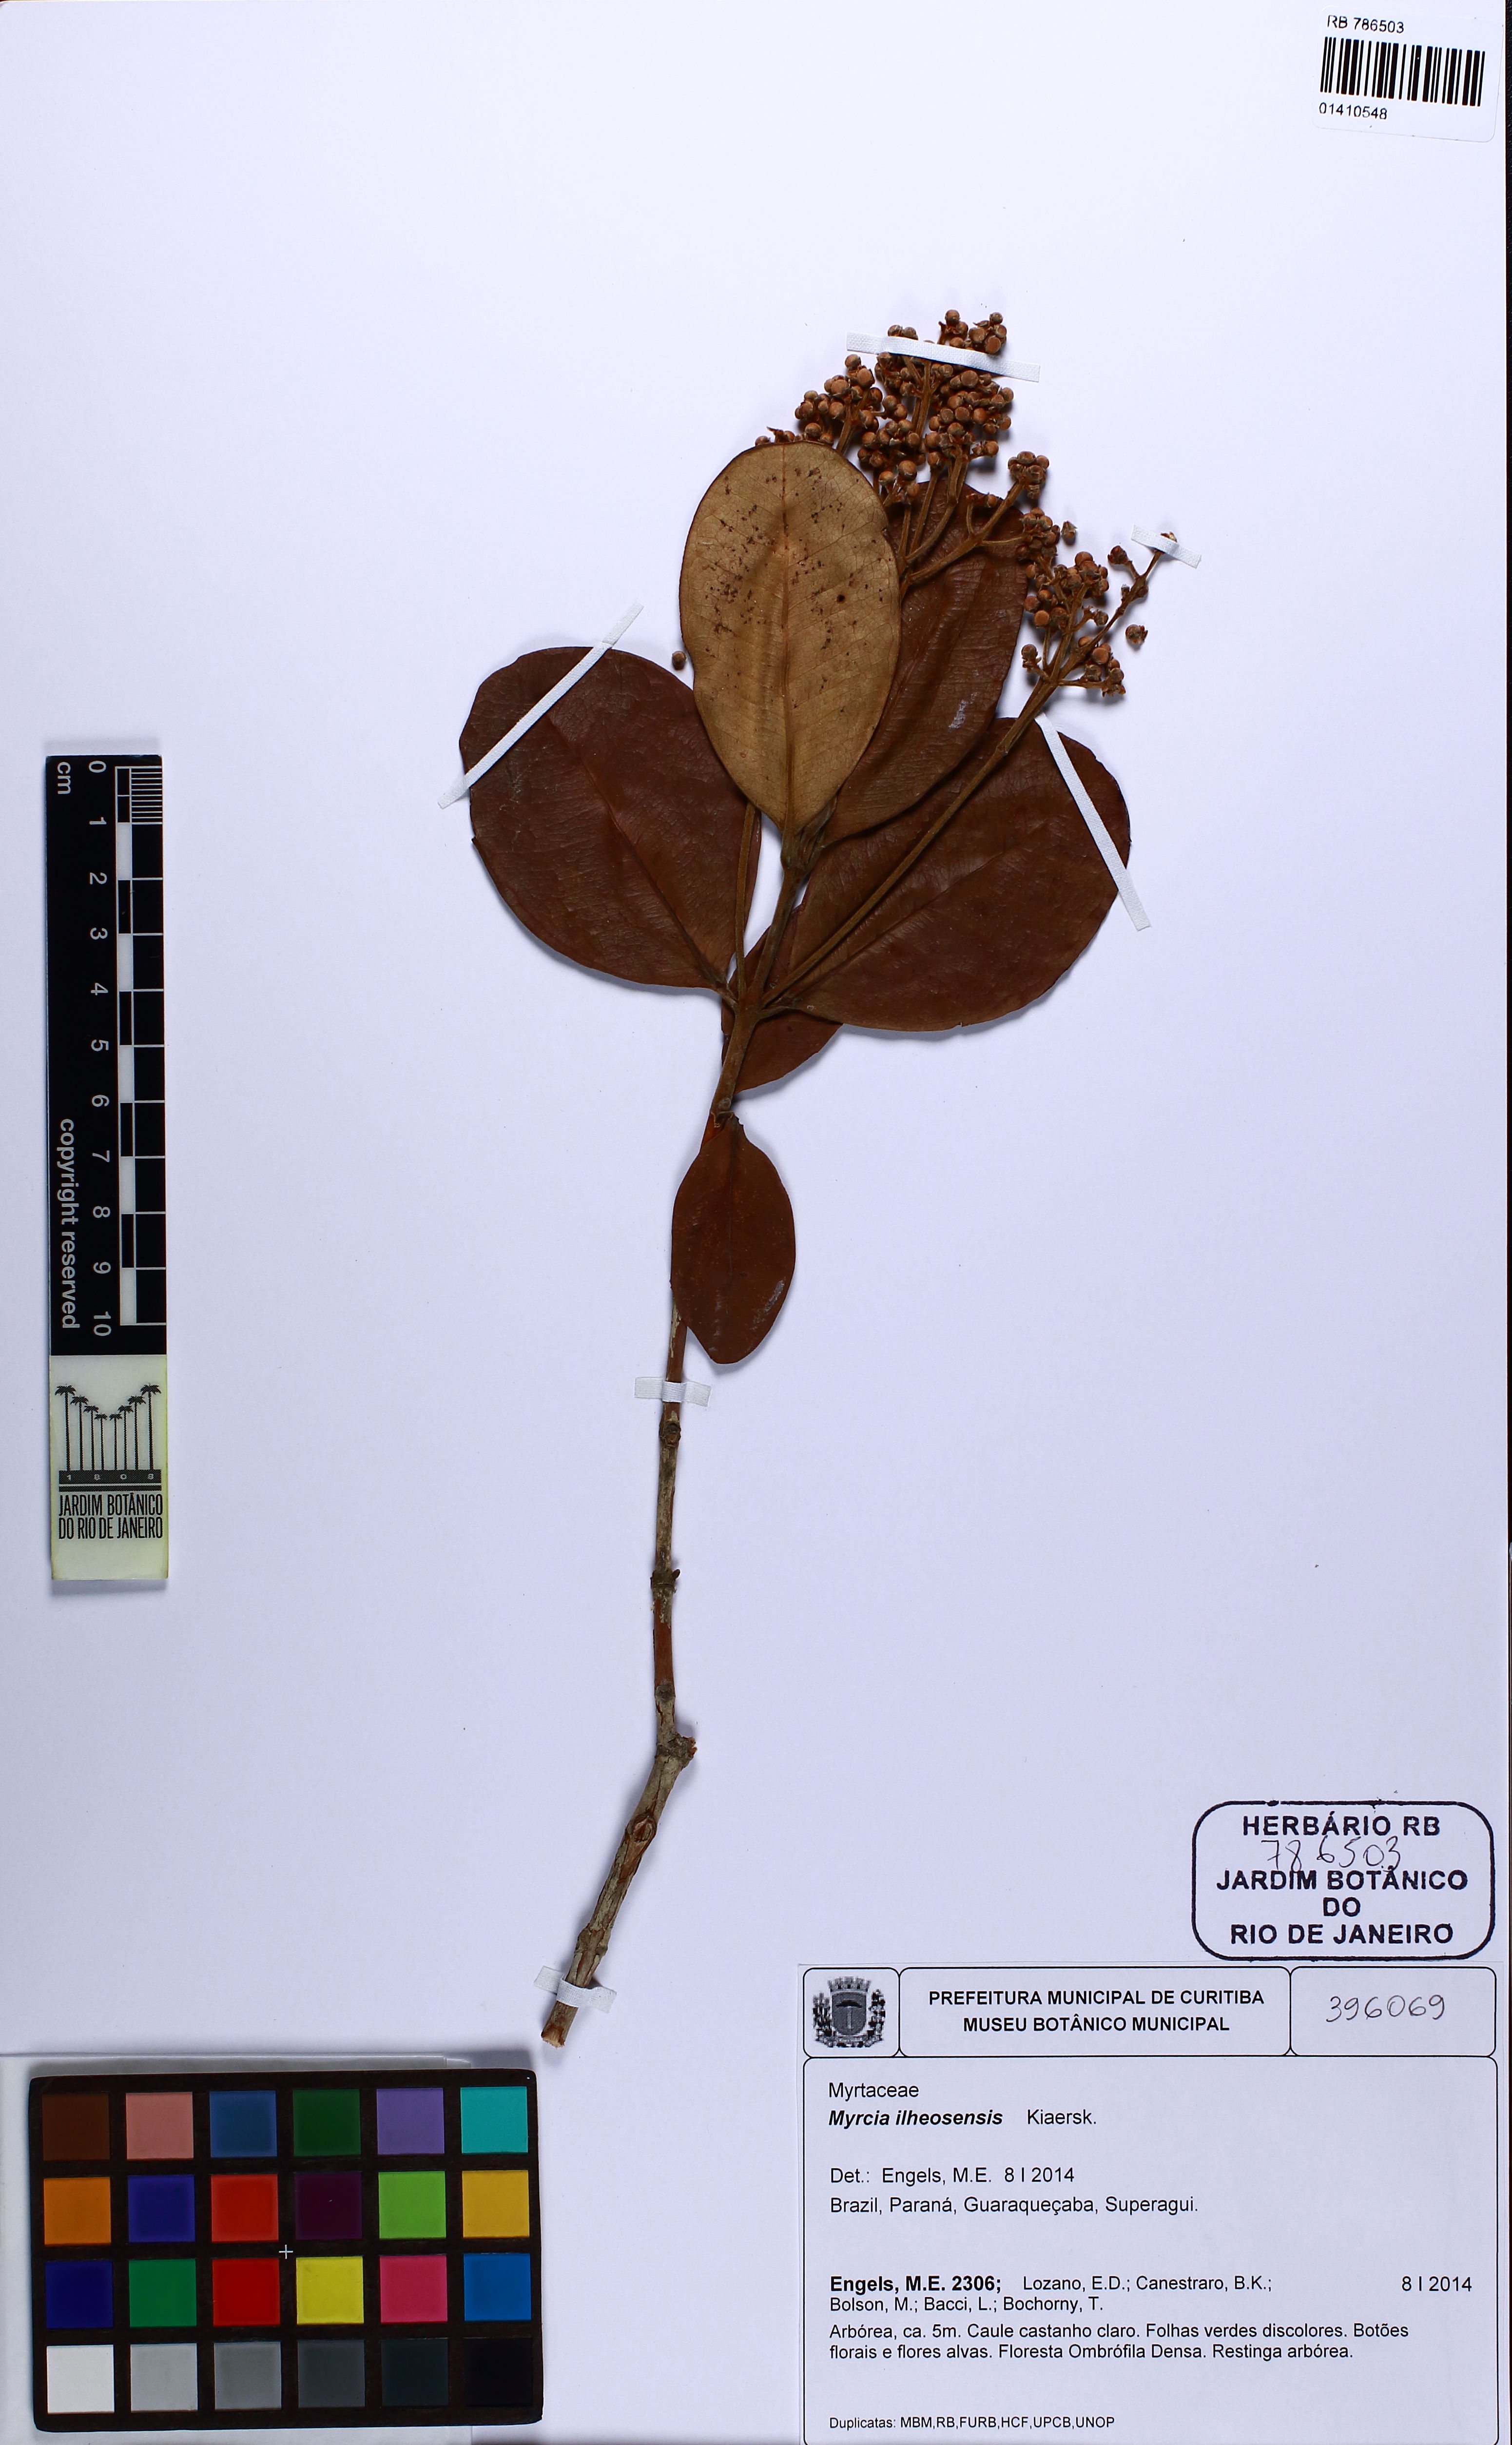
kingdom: Plantae
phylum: Tracheophyta
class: Magnoliopsida
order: Myrtales
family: Myrtaceae
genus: Myrcia
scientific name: Myrcia ilheosensis
